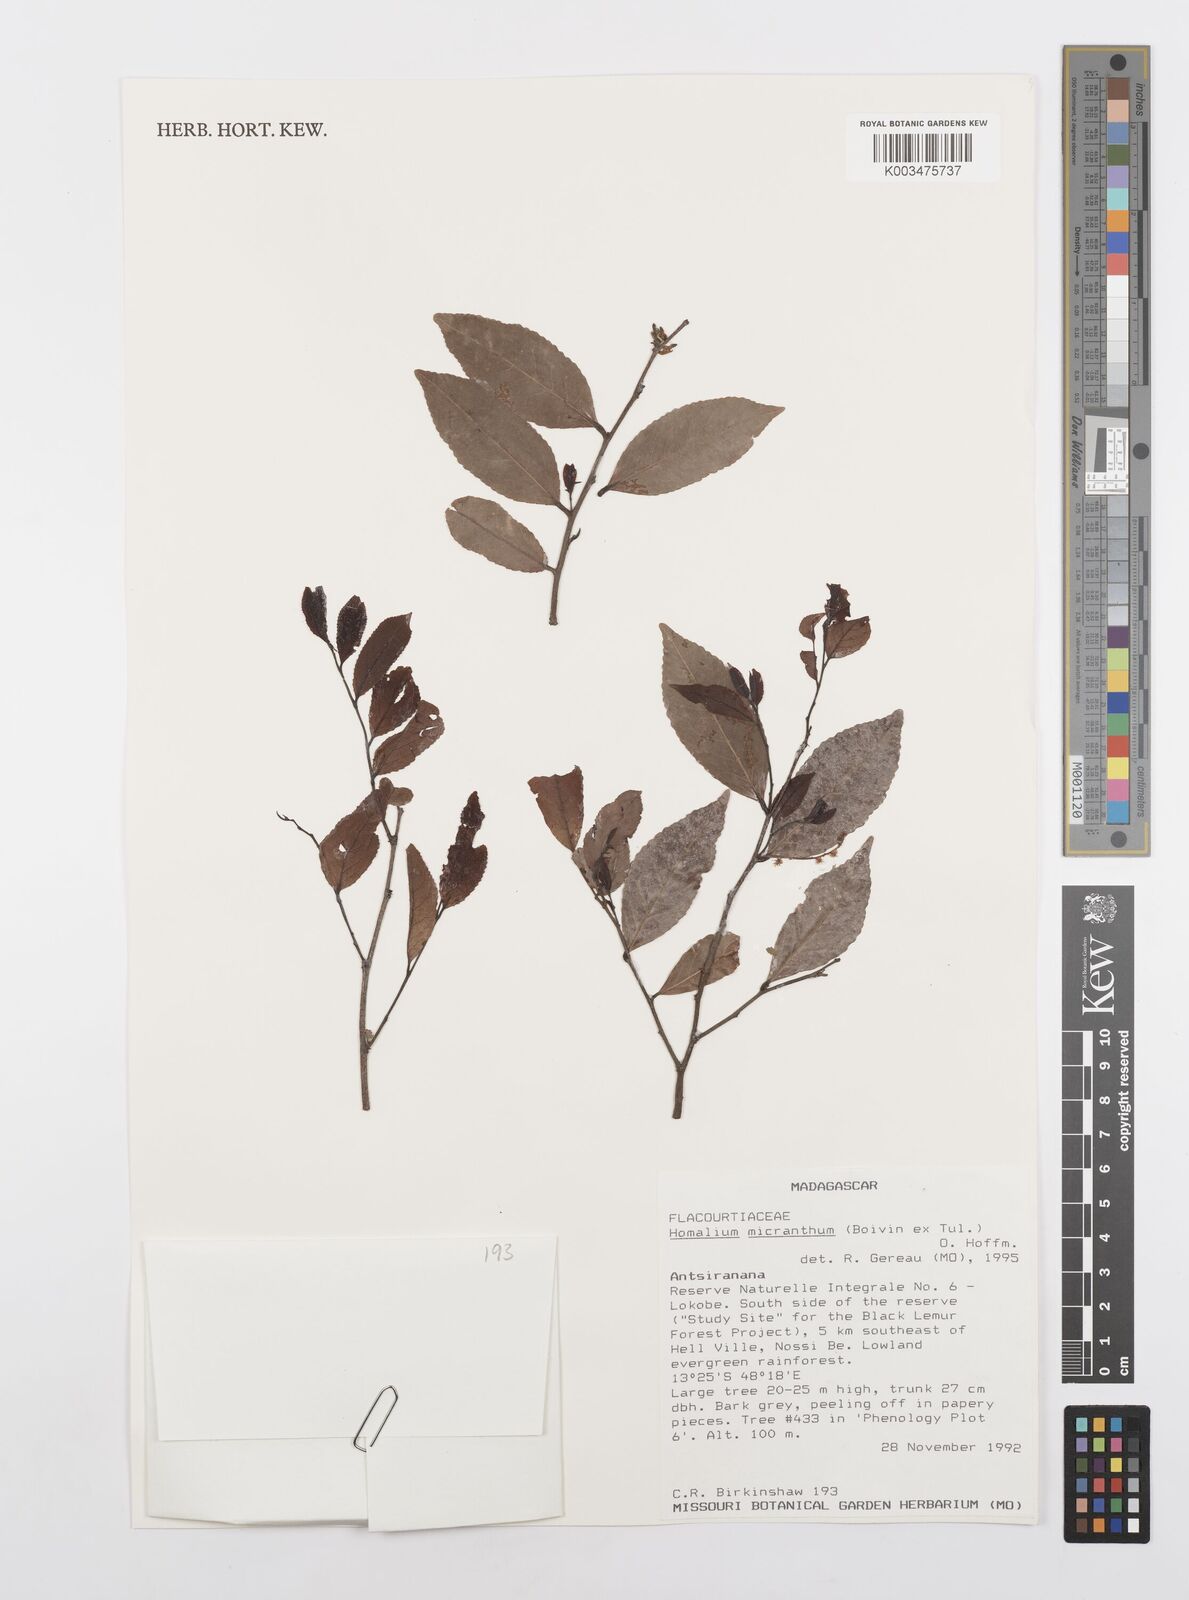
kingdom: Plantae
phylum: Tracheophyta
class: Magnoliopsida
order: Malpighiales
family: Salicaceae
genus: Homalium
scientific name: Homalium micranthum
